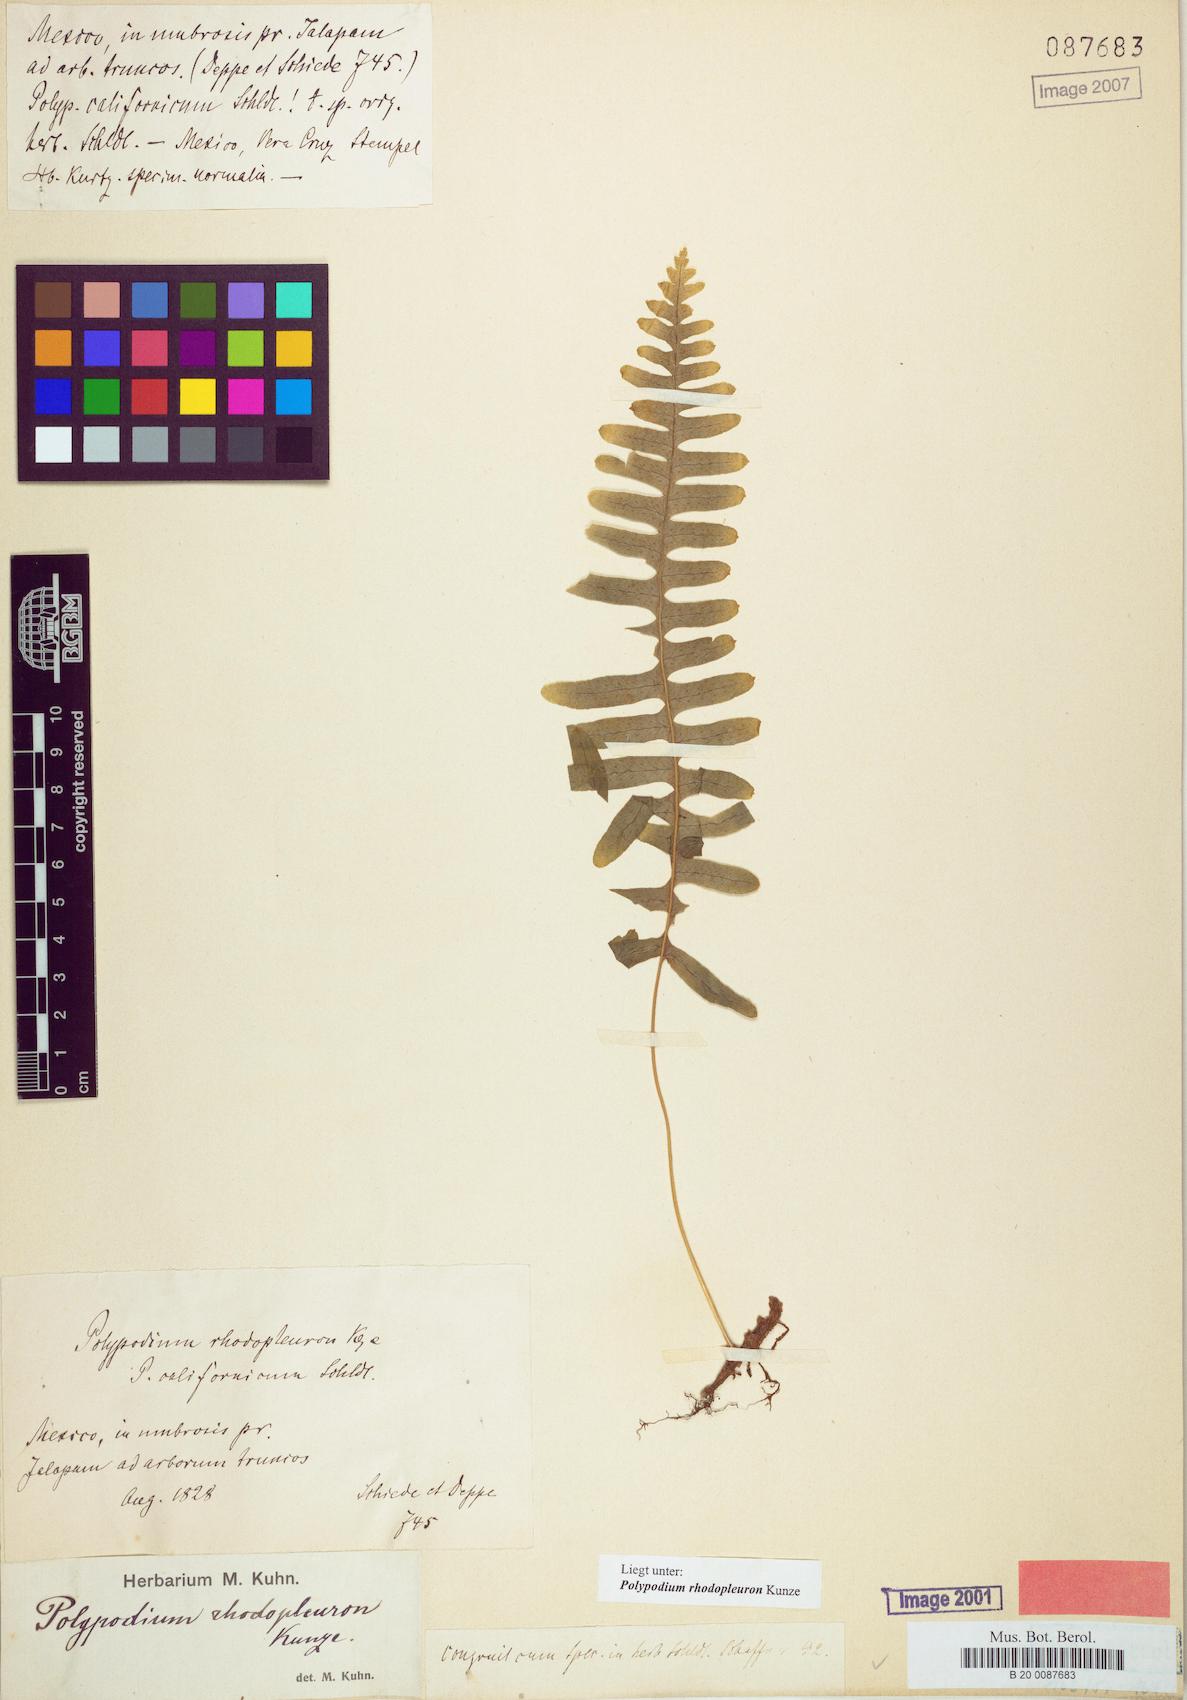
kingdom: Plantae
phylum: Tracheophyta
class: Polypodiopsida
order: Polypodiales
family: Polypodiaceae
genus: Polypodium
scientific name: Polypodium rhodopleuron
